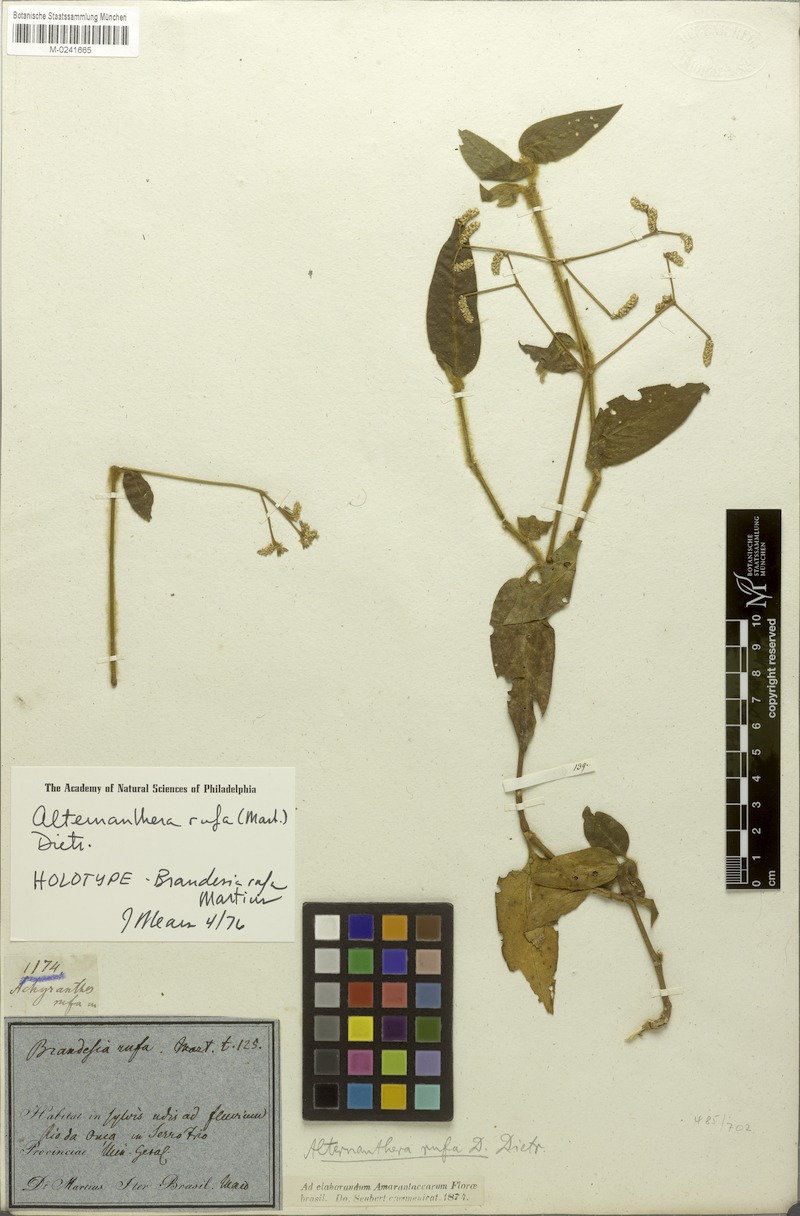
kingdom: Plantae
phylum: Tracheophyta
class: Magnoliopsida
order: Caryophyllales
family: Amaranthaceae
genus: Alternanthera
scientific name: Alternanthera rufa
